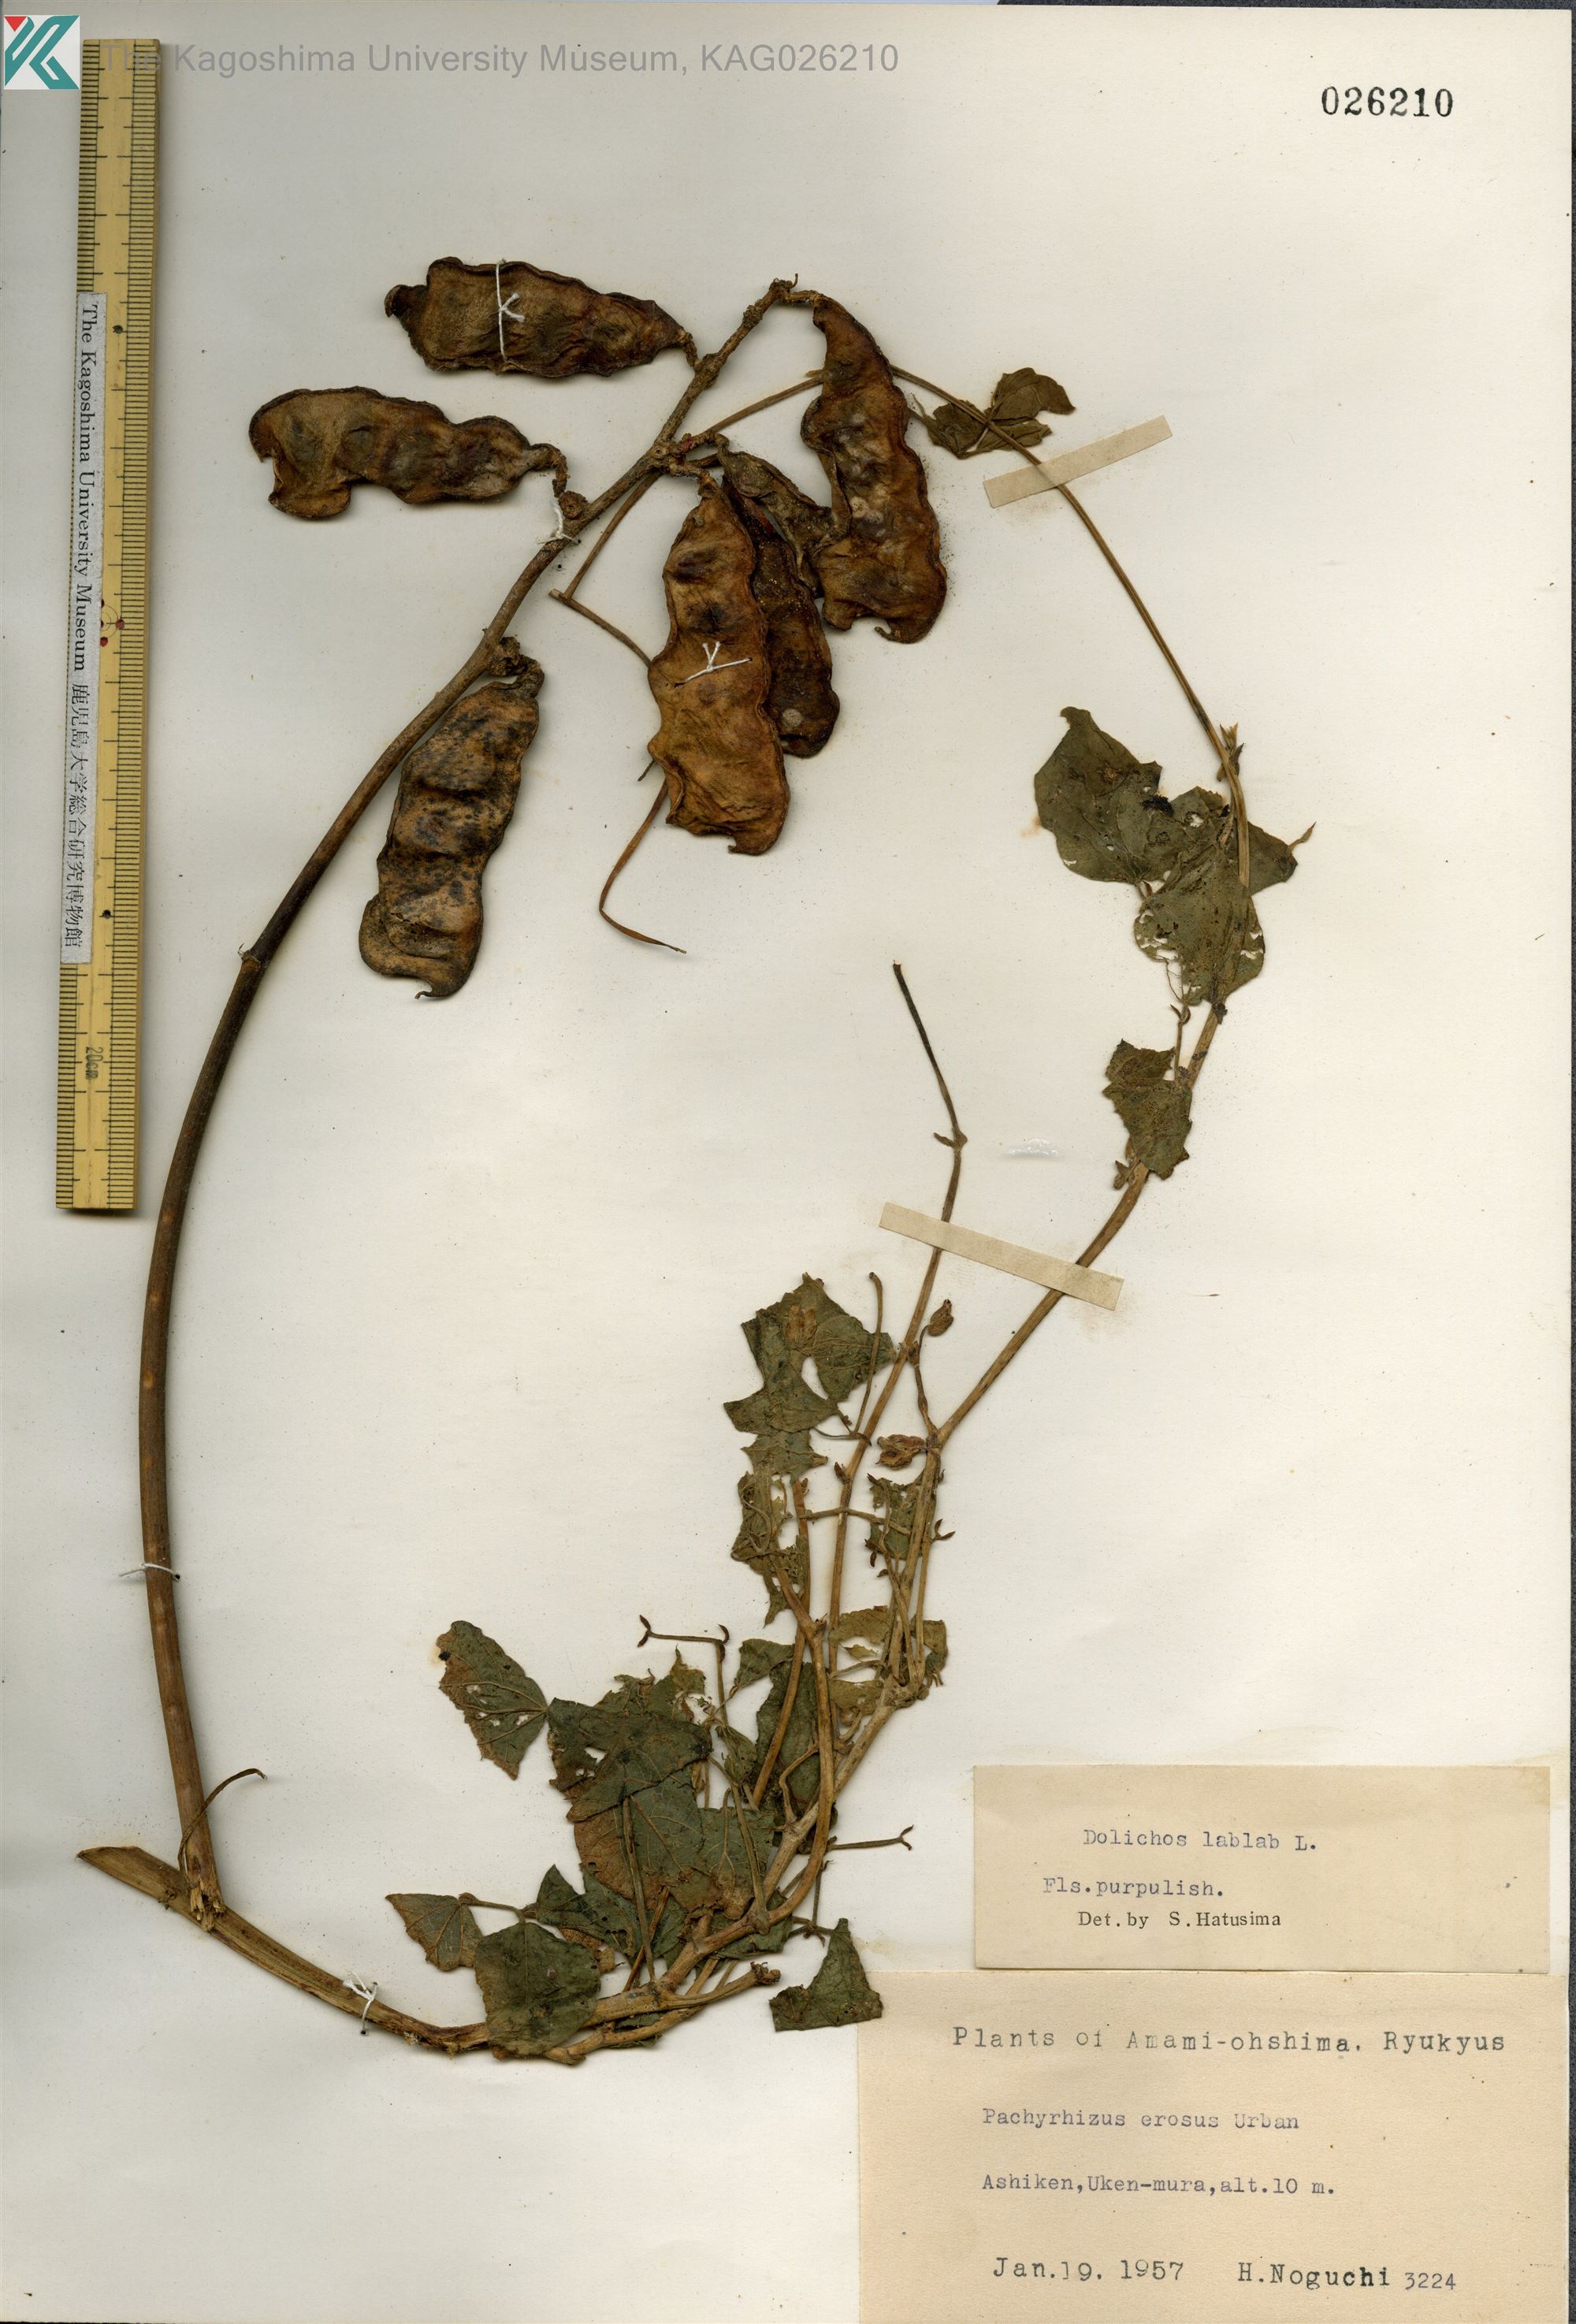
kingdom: Plantae
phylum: Tracheophyta
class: Magnoliopsida
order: Fabales
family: Fabaceae
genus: Lablab
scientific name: Lablab purpureus
